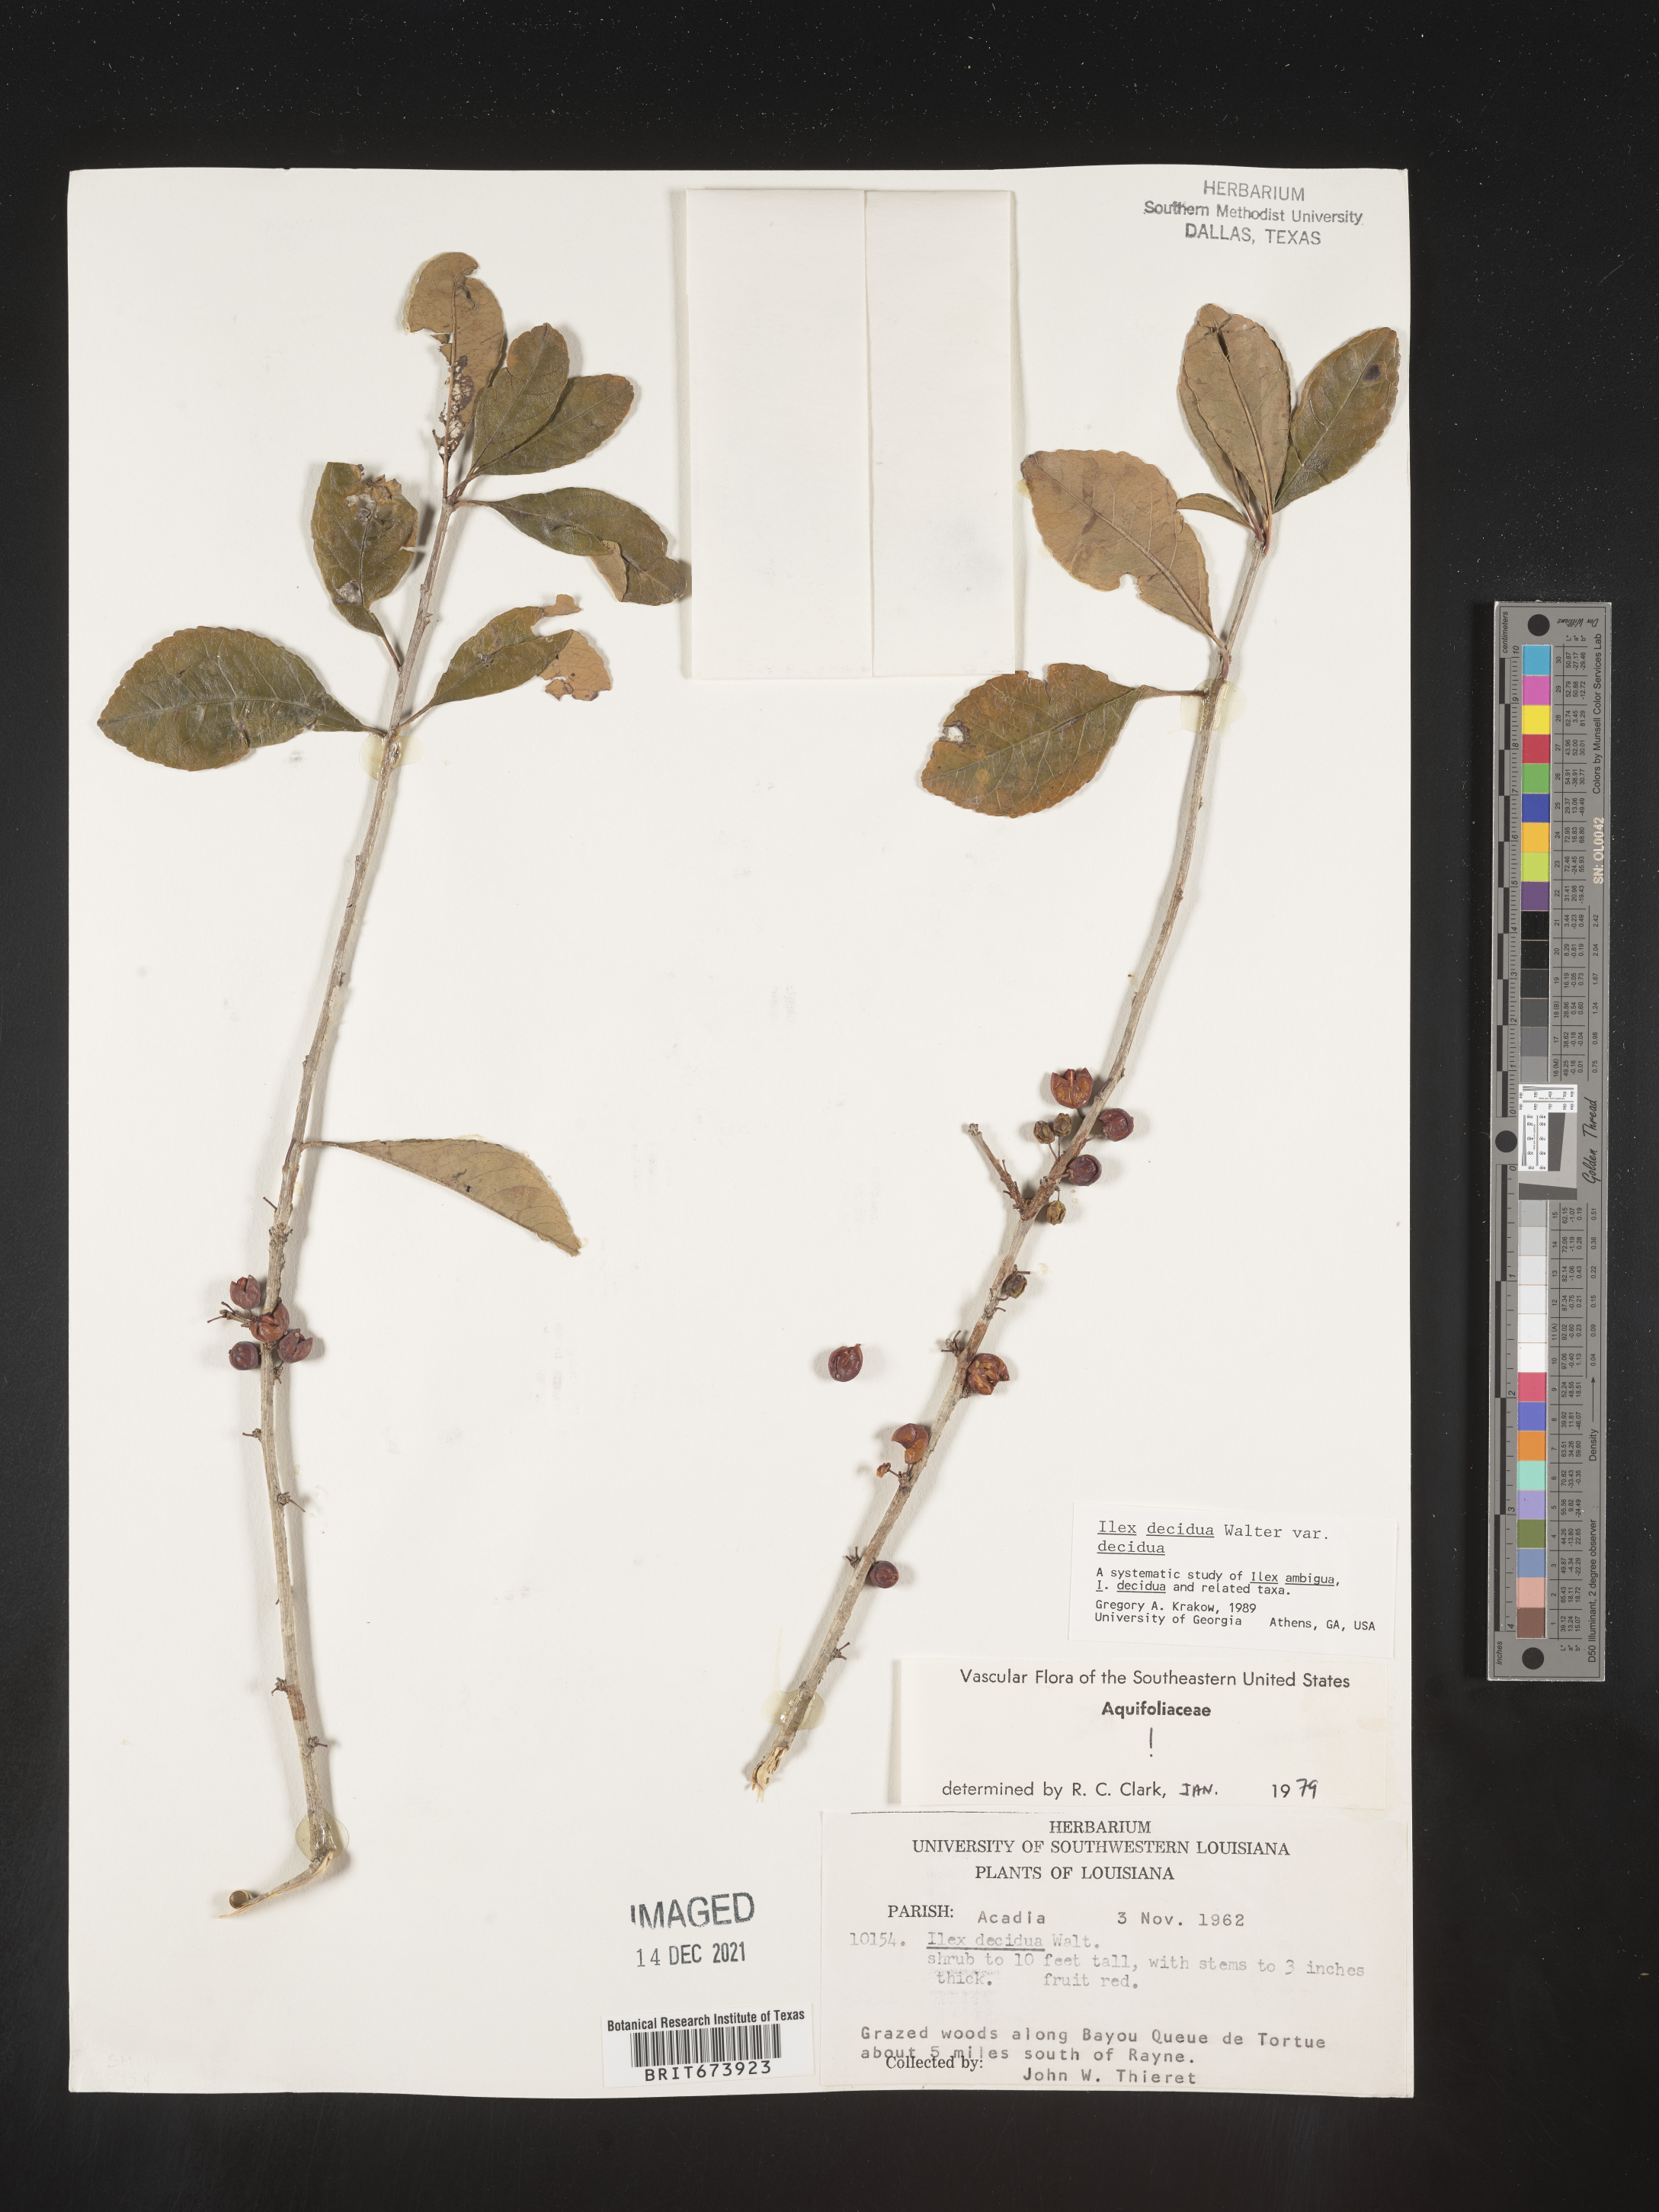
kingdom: Plantae
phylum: Tracheophyta
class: Magnoliopsida
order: Aquifoliales
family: Aquifoliaceae
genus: Ilex
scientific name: Ilex decidua
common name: Possum-haw
